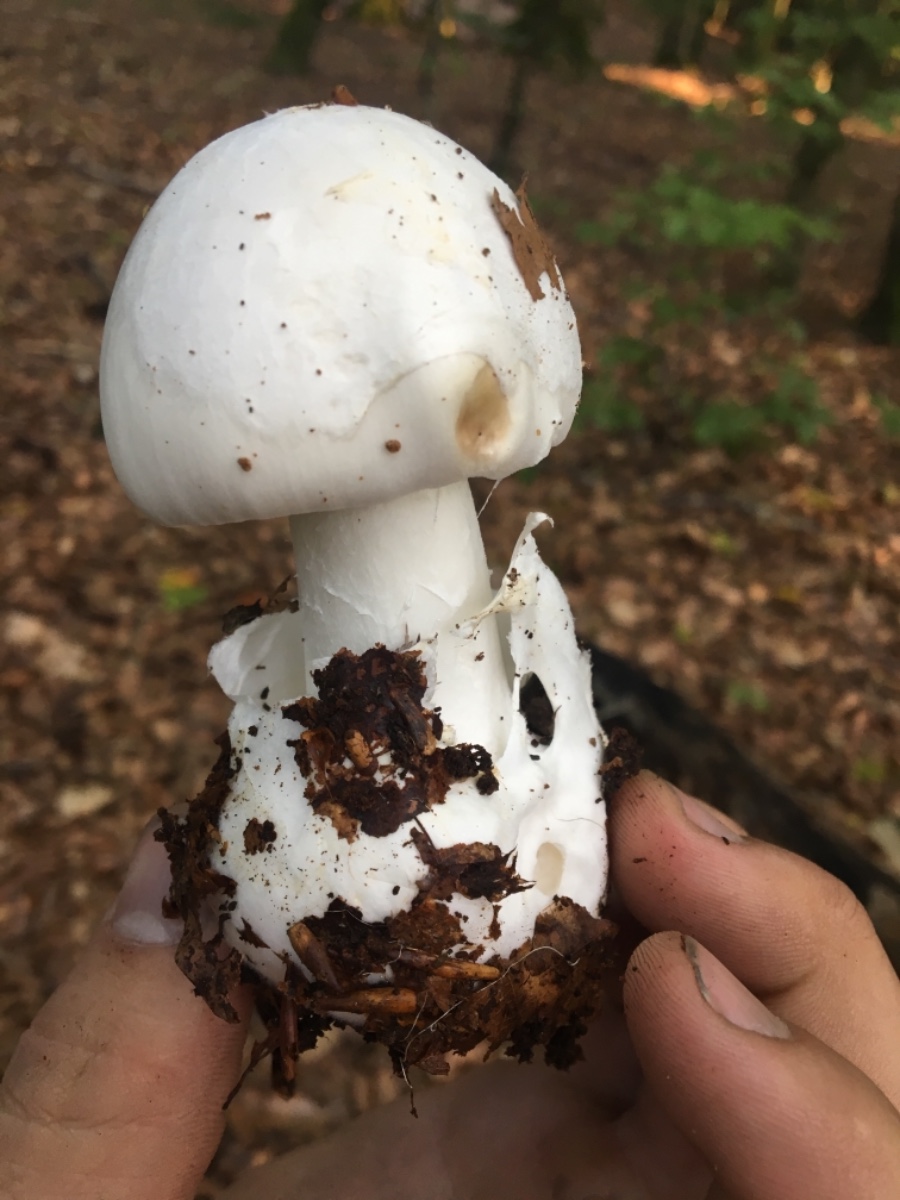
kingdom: Fungi
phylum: Basidiomycota
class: Agaricomycetes
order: Agaricales
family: Amanitaceae
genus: Amanita
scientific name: Amanita virosa
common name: snehvid fluesvamp
